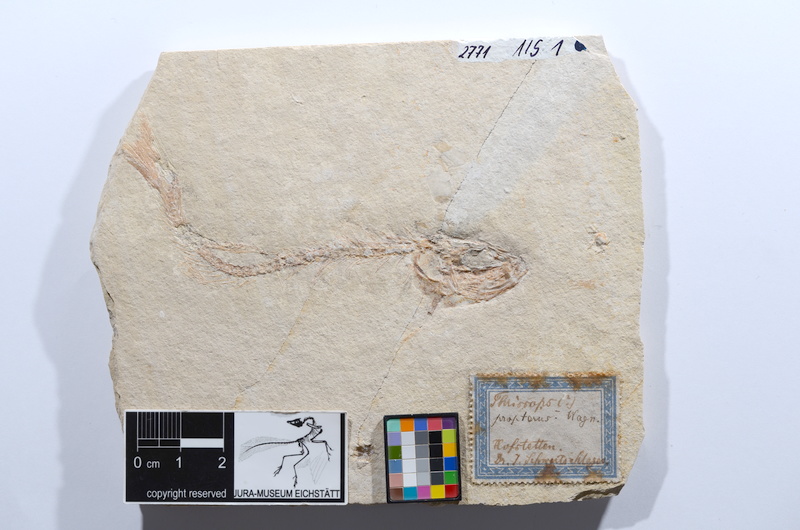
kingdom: Animalia
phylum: Chordata
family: Ascalaboidae
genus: Tharsis
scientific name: Tharsis dubius
